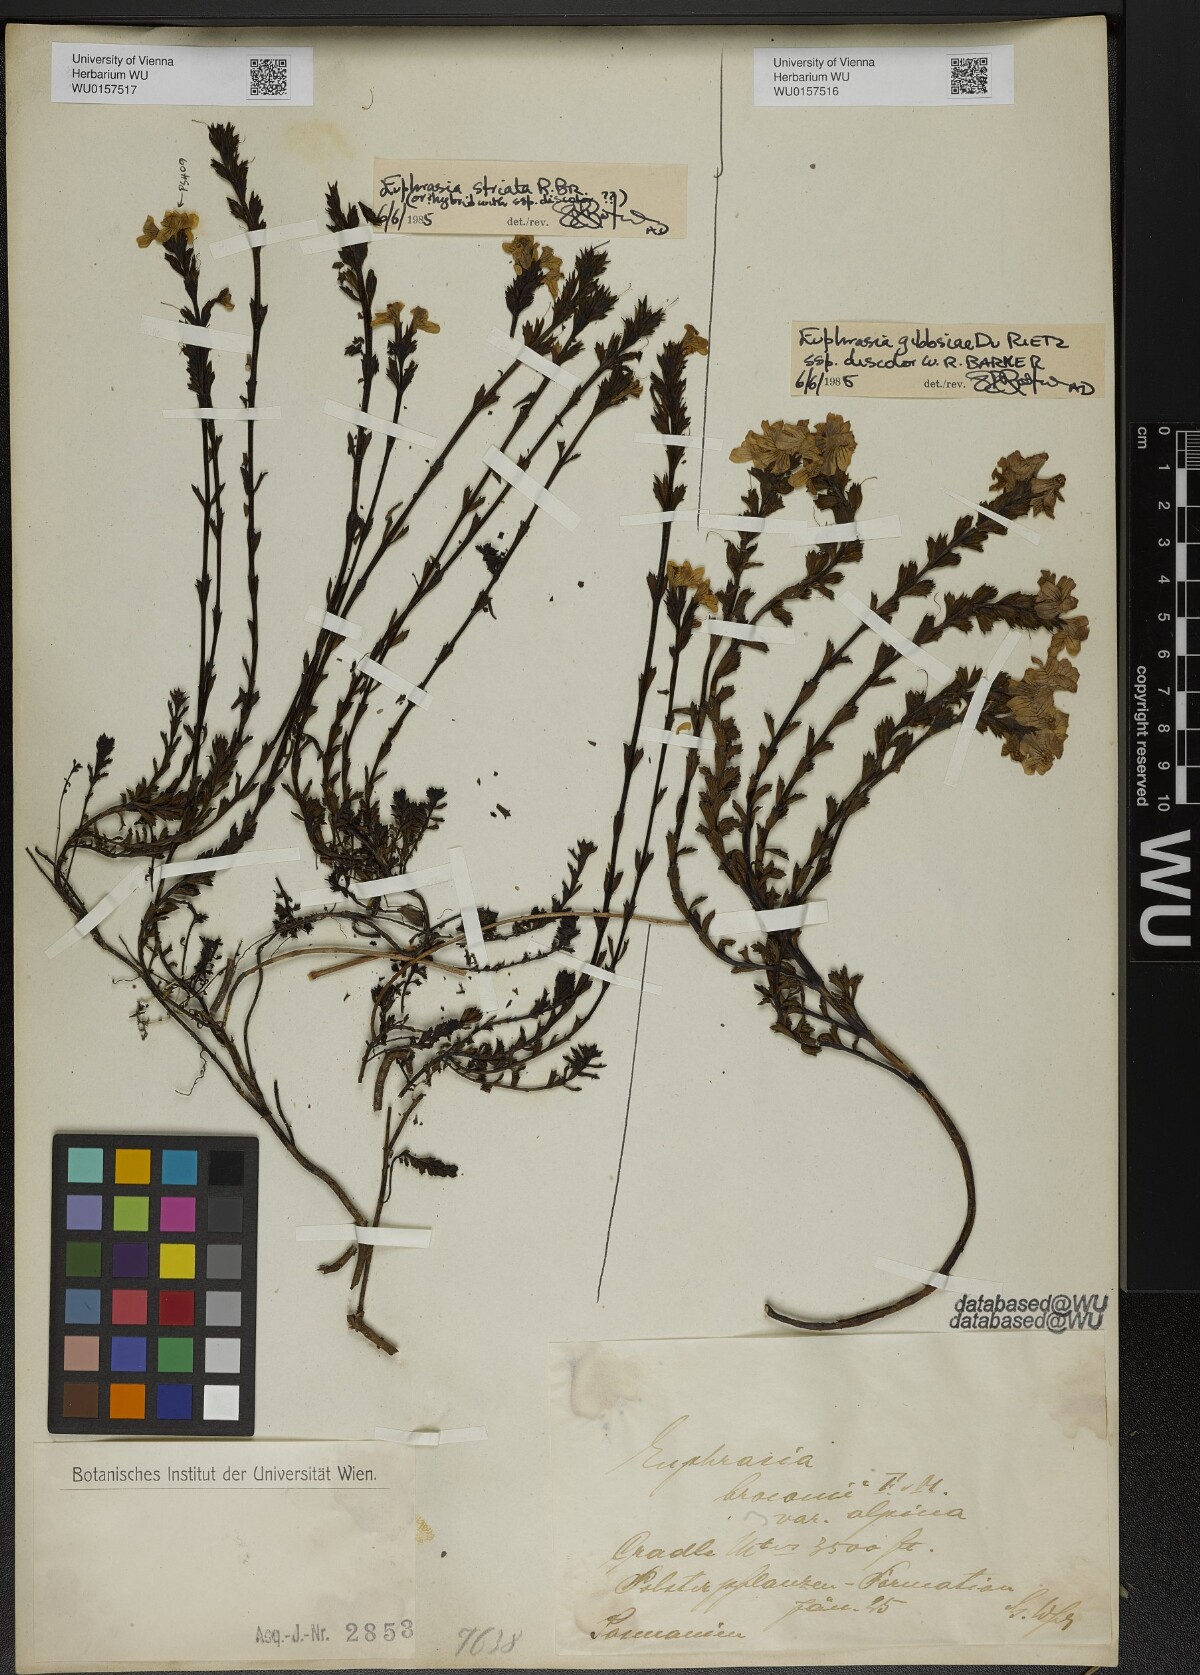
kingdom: Plantae
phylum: Tracheophyta
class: Magnoliopsida
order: Lamiales
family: Orobanchaceae
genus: Euphrasia
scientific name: Euphrasia striata
